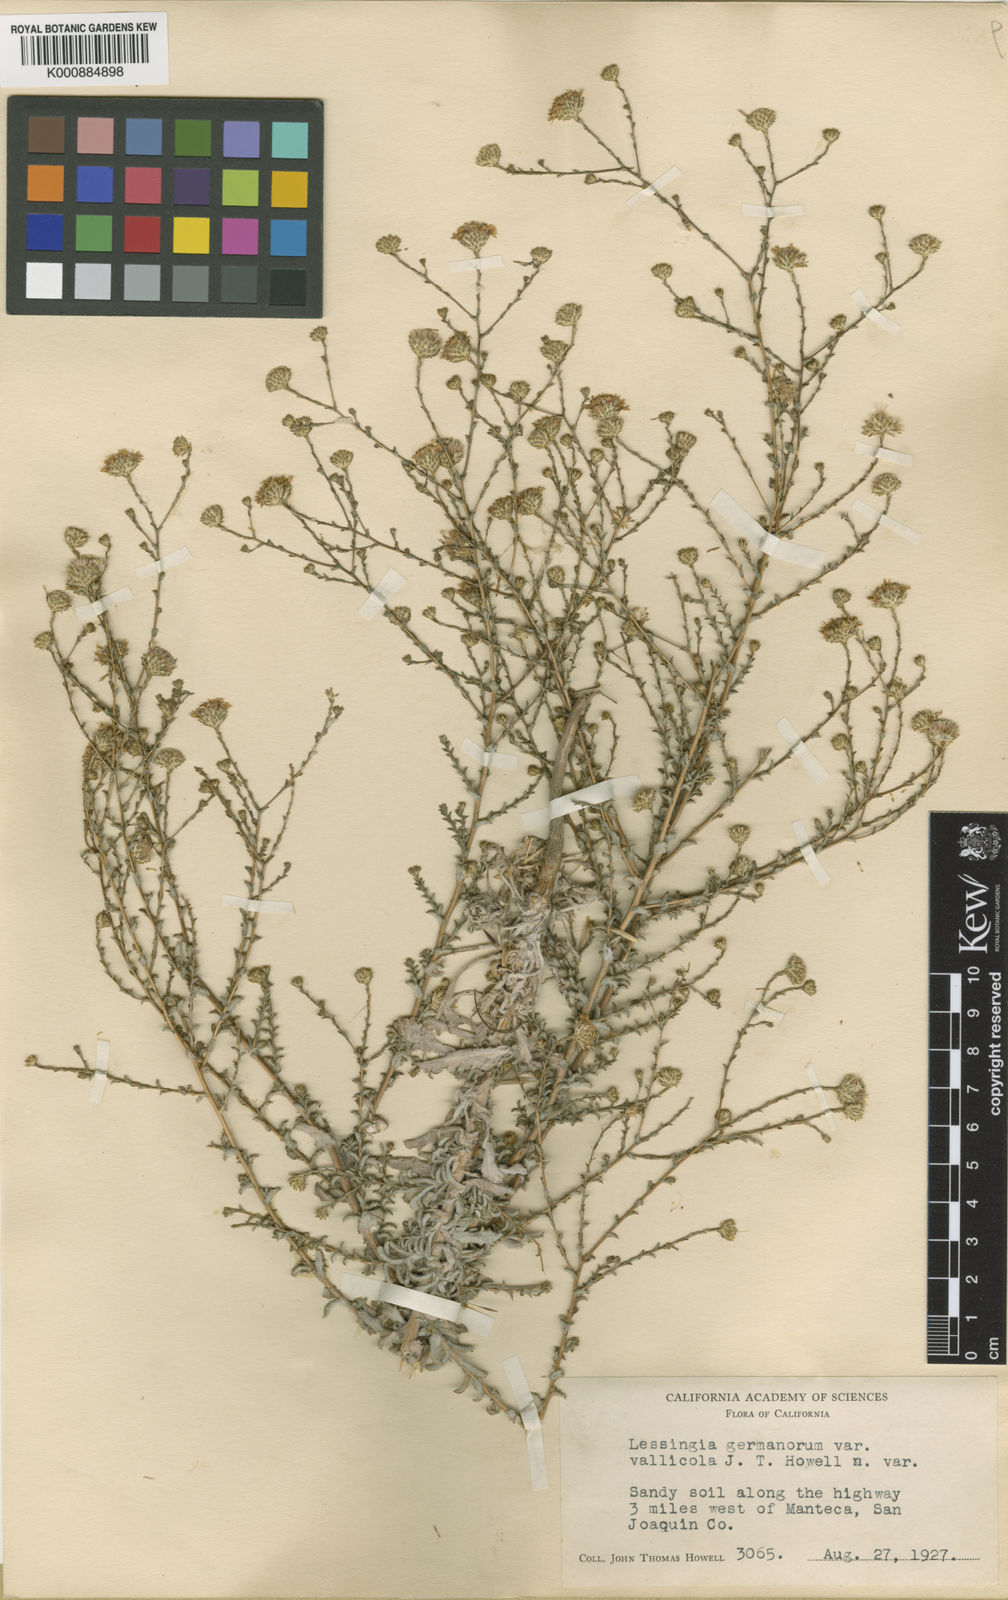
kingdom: Plantae
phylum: Tracheophyta
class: Magnoliopsida
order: Asterales
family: Asteraceae
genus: Lessingia
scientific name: Lessingia germanorum
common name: San francisco lessingia
